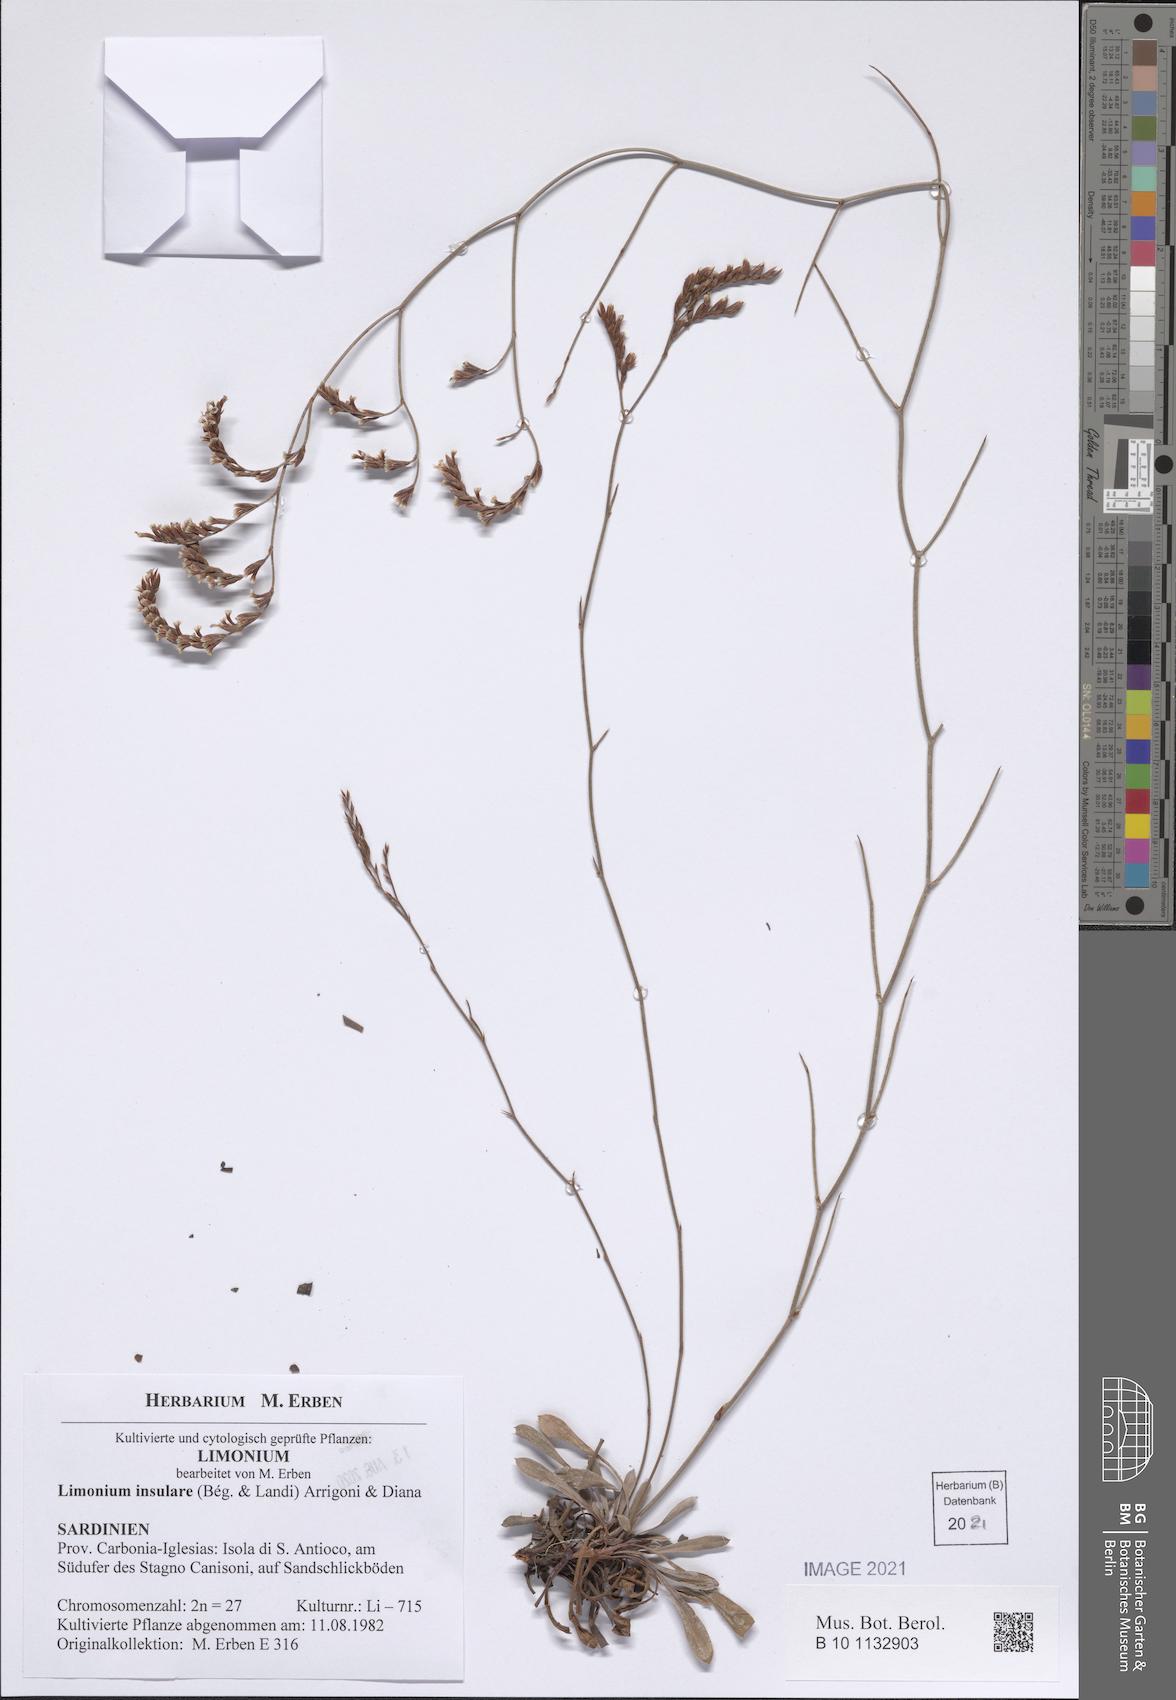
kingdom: Plantae
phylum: Tracheophyta
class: Magnoliopsida
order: Caryophyllales
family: Plumbaginaceae
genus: Limonium
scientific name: Limonium insulare
